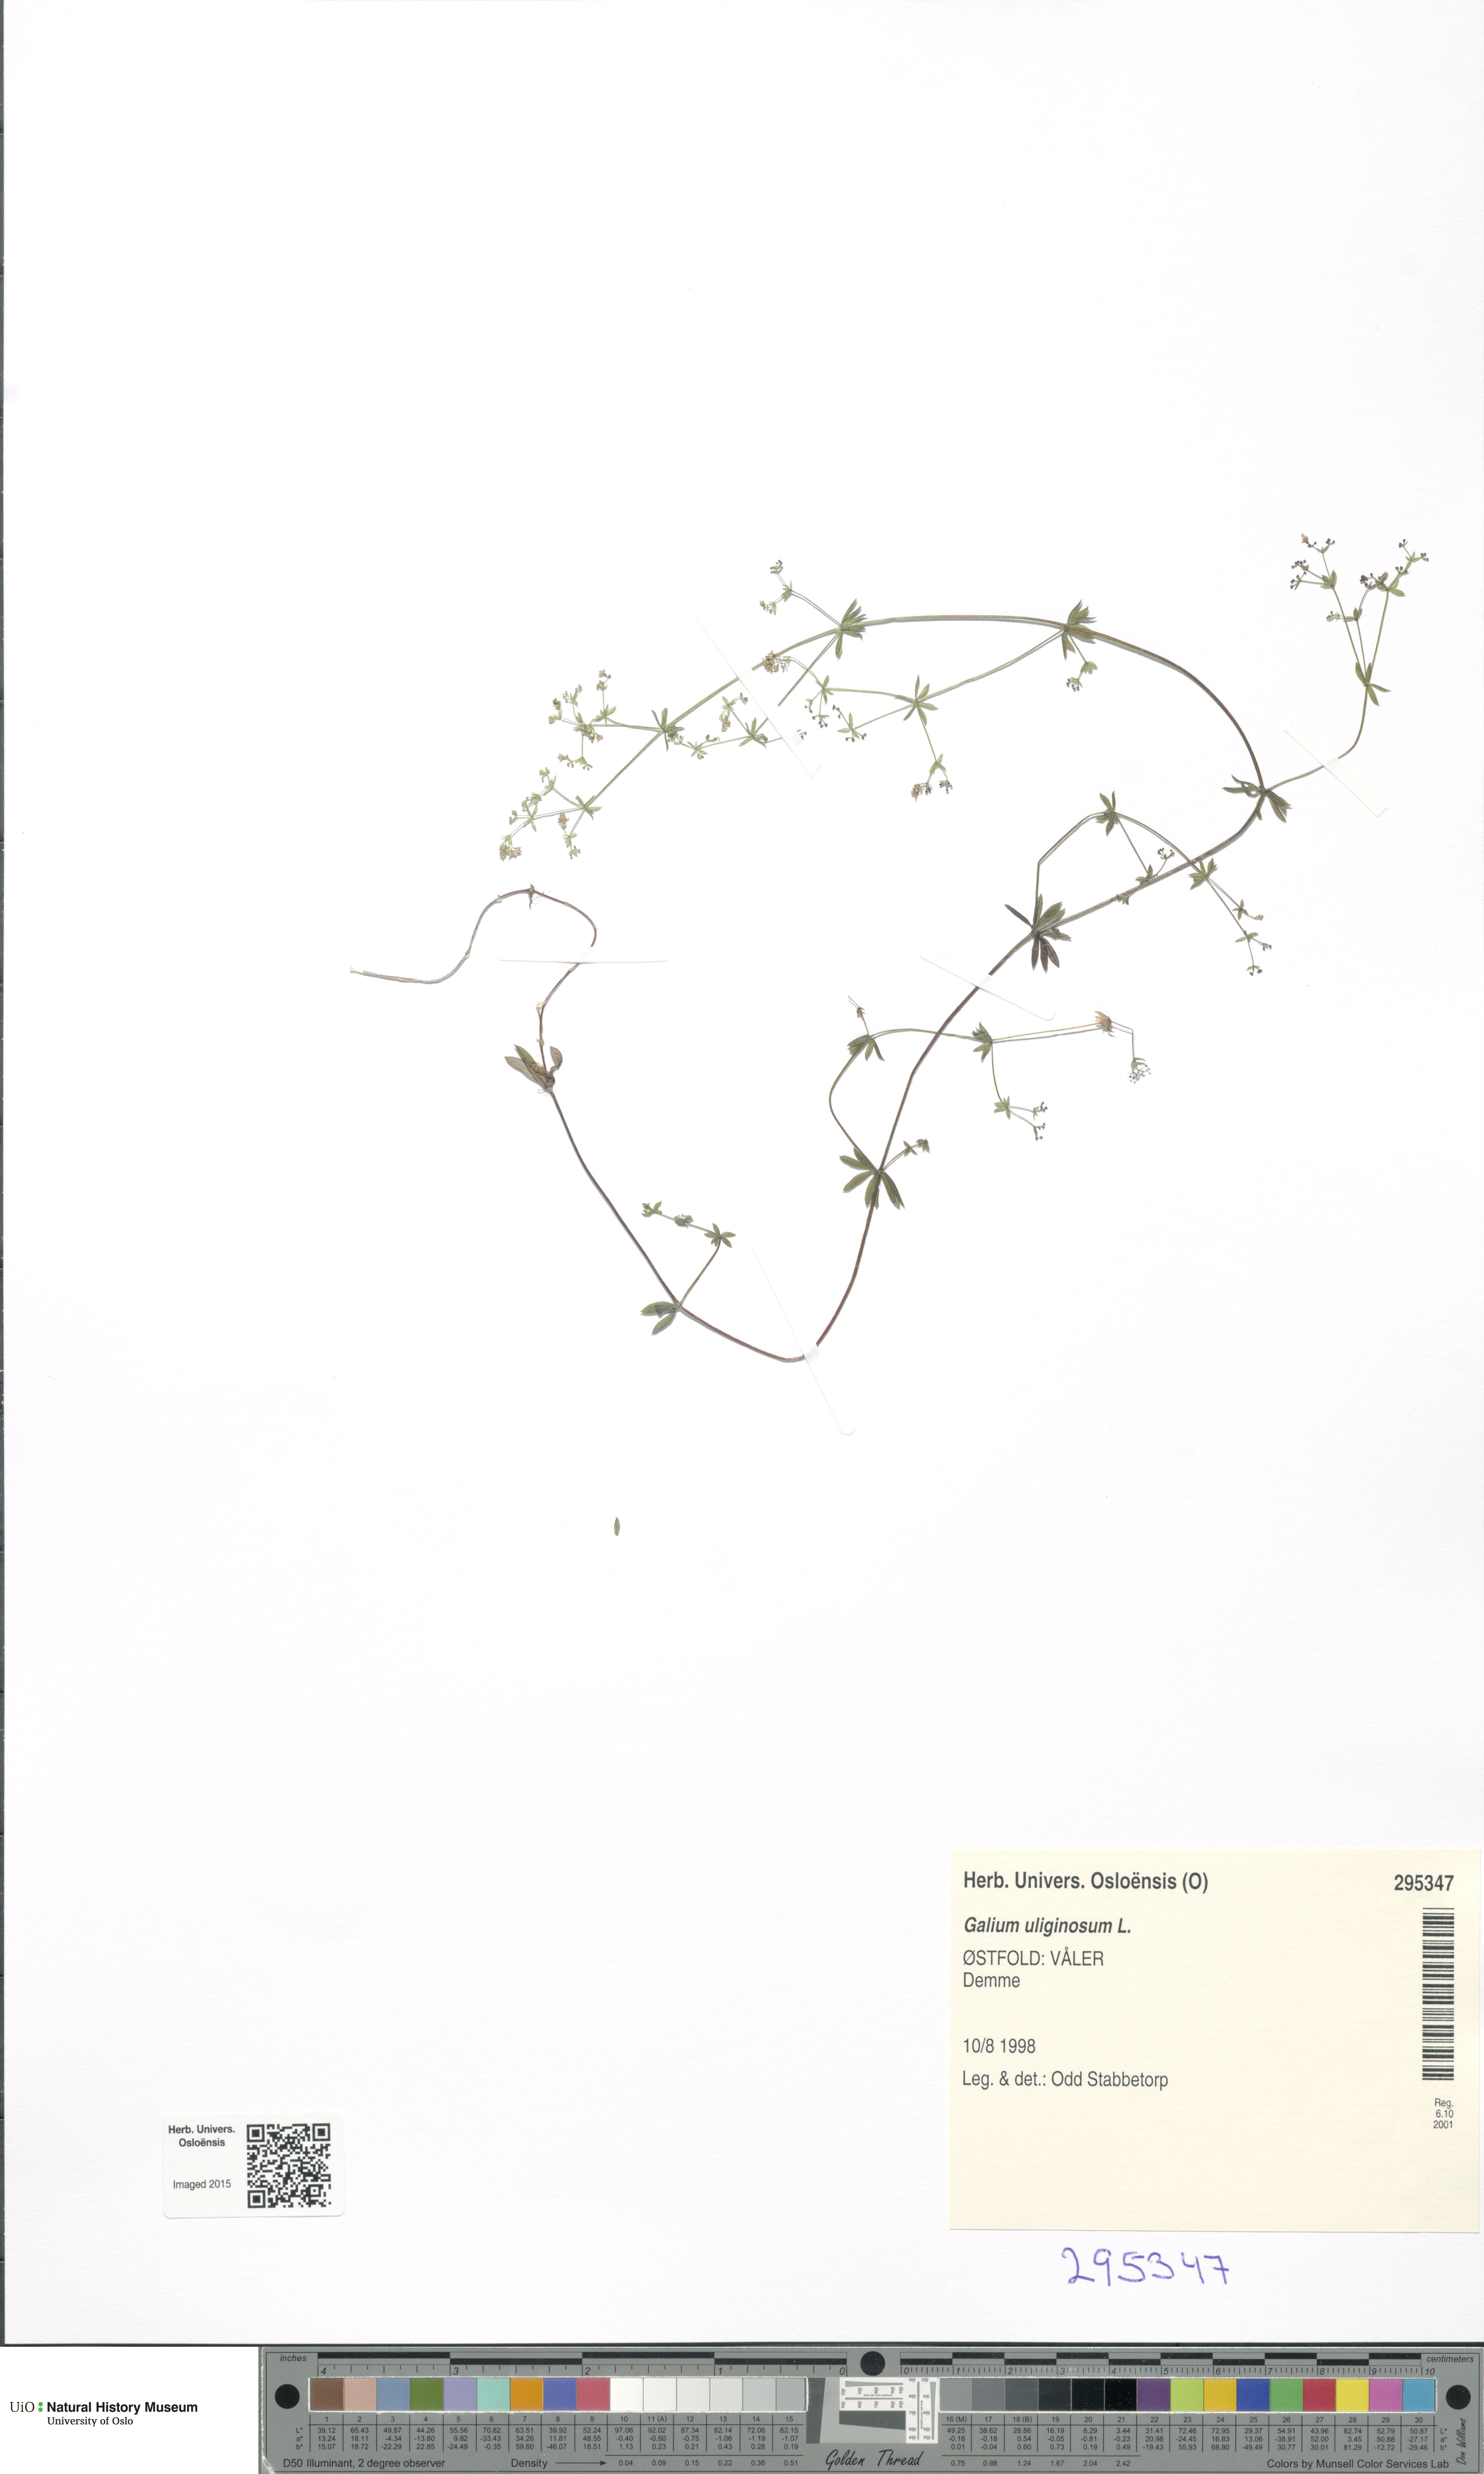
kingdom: Plantae
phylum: Tracheophyta
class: Magnoliopsida
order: Gentianales
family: Rubiaceae
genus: Galium
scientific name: Galium uliginosum
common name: Fen bedstraw
